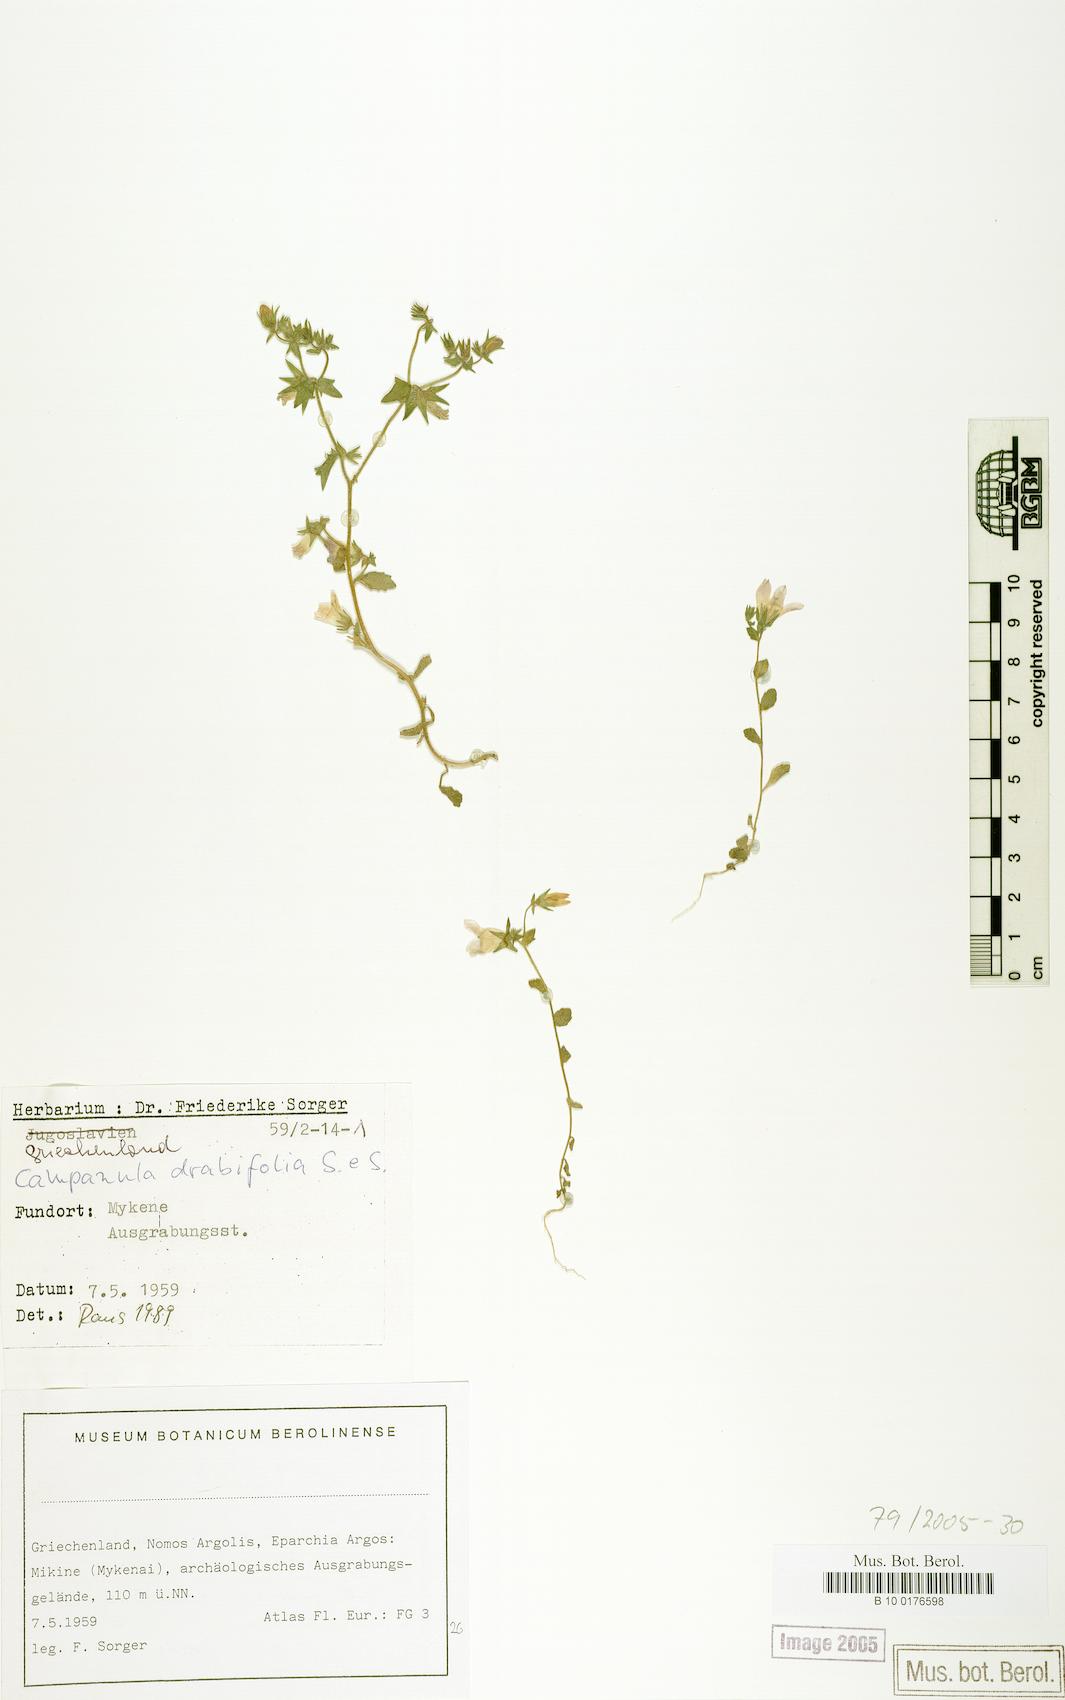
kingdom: Plantae
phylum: Tracheophyta
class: Magnoliopsida
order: Asterales
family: Campanulaceae
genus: Campanula
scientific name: Campanula drabifolia
